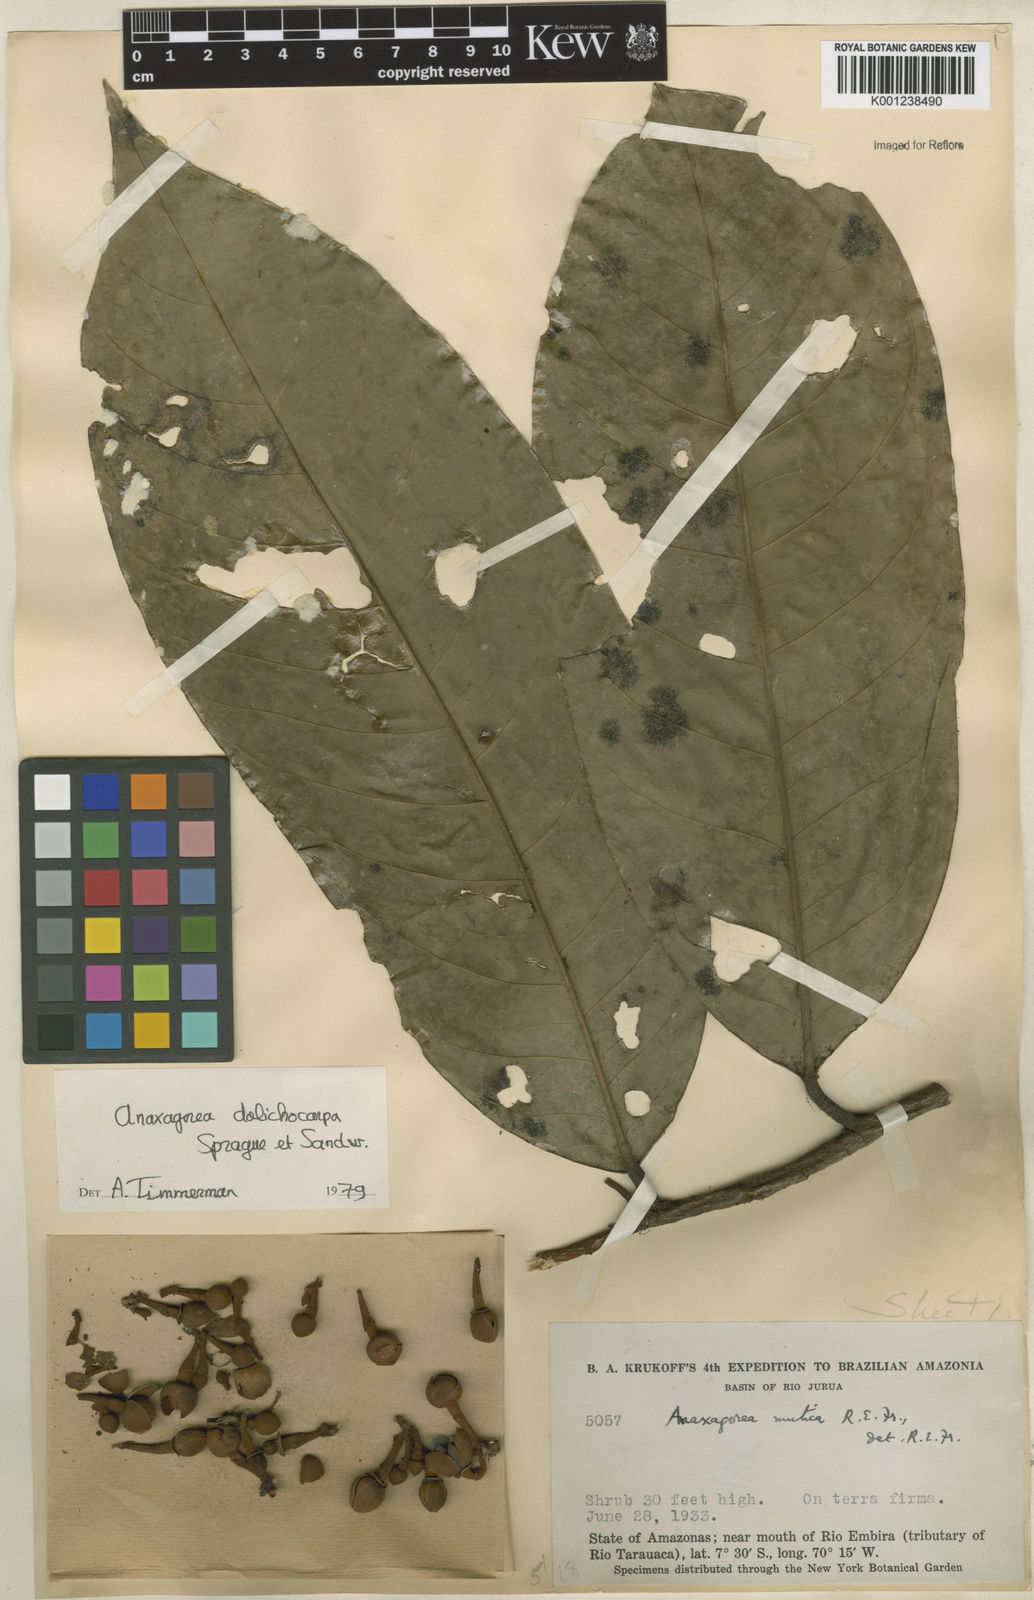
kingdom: Plantae
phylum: Tracheophyta
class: Magnoliopsida
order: Magnoliales
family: Annonaceae
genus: Anaxagorea
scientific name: Anaxagorea dolichocarpa
